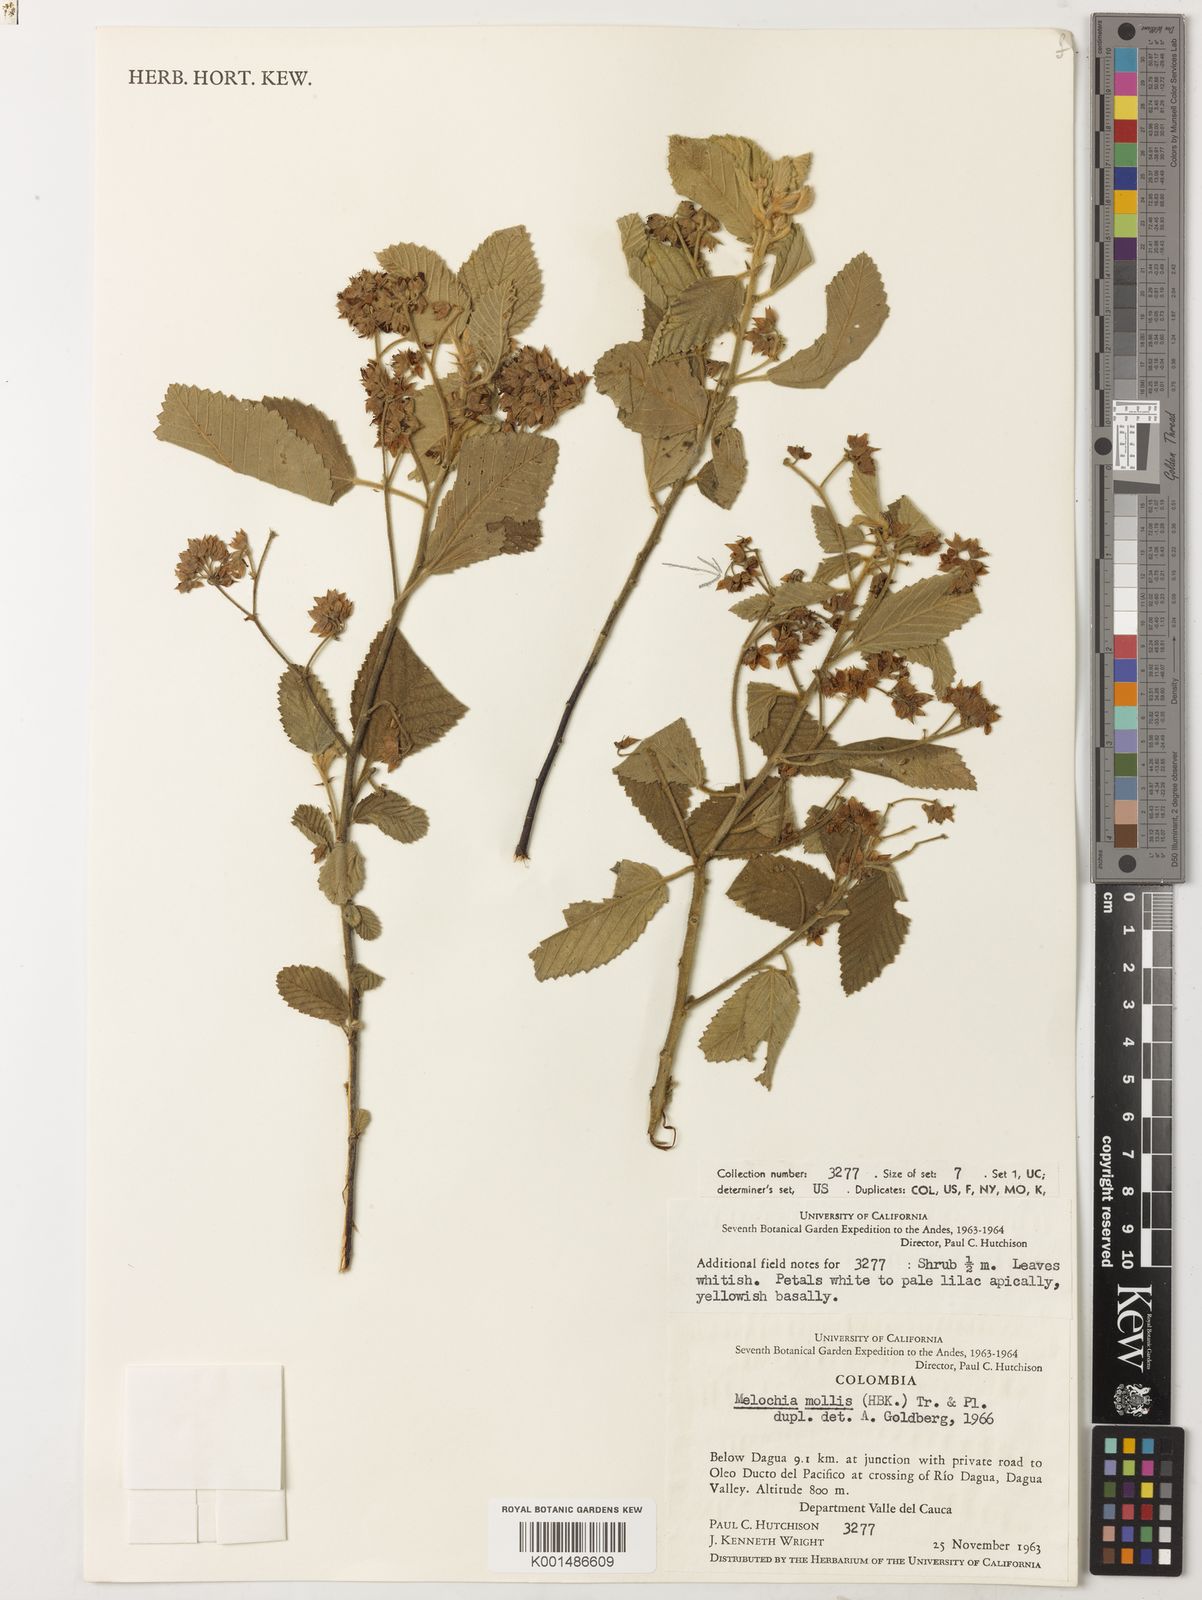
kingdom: Plantae
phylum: Tracheophyta
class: Magnoliopsida
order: Malvales
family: Malvaceae
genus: Melochia
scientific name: Melochia mollis
